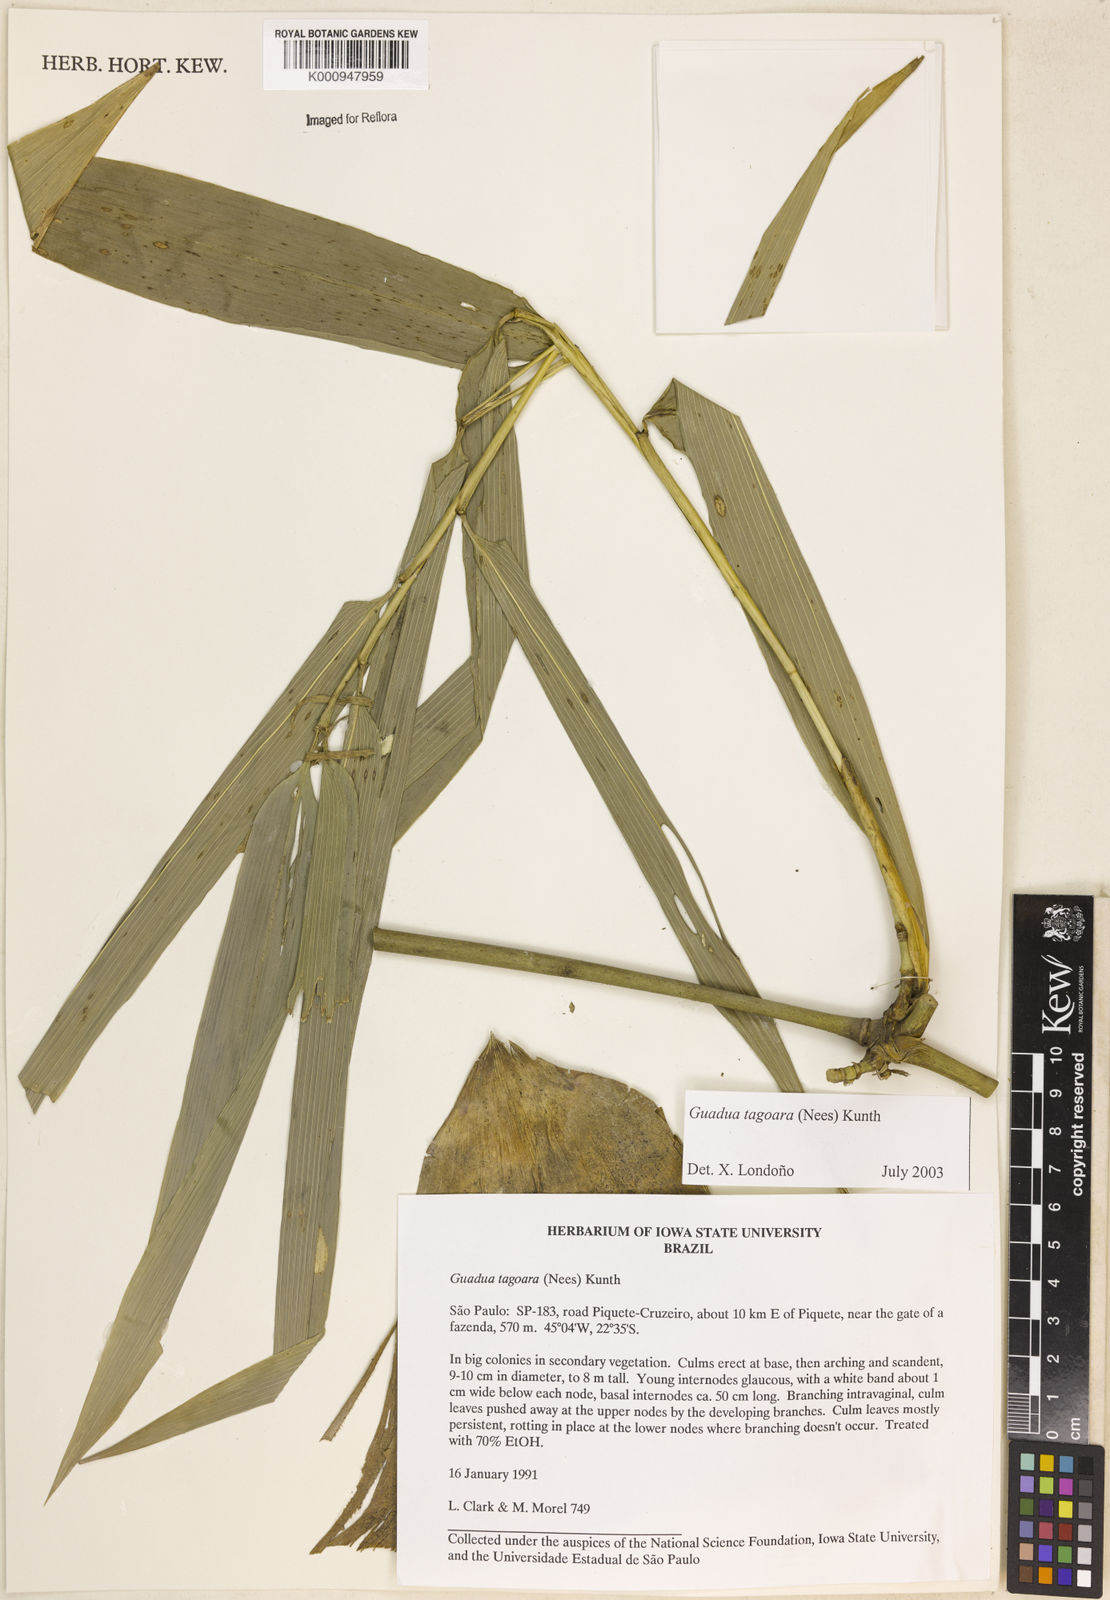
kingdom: Plantae
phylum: Tracheophyta
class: Liliopsida
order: Poales
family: Poaceae
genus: Guadua
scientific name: Guadua tagoara
